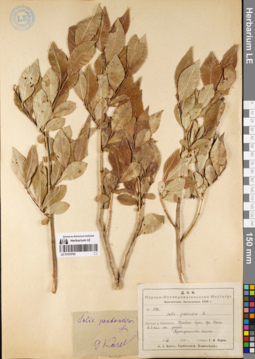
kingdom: Plantae
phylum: Tracheophyta
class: Magnoliopsida
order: Malpighiales
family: Salicaceae
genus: Salix
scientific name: Salix pseudopentandra
